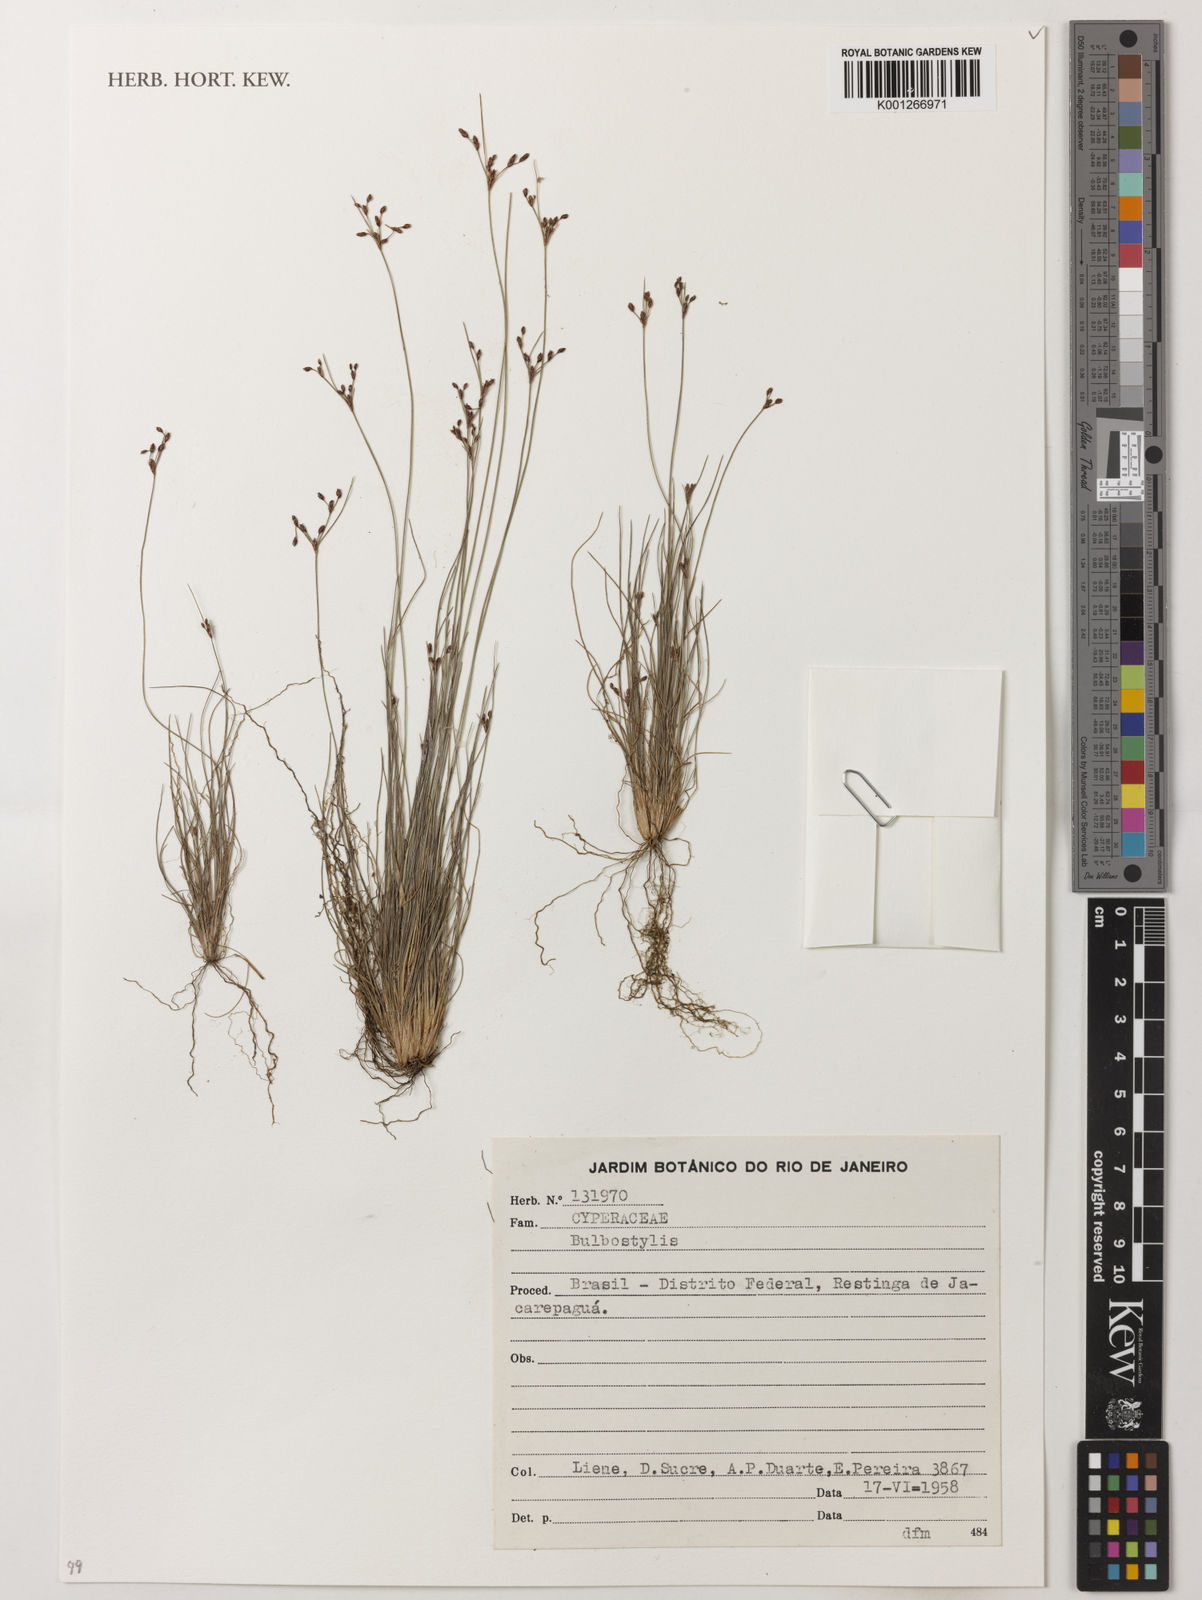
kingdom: Plantae
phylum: Tracheophyta
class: Liliopsida
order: Poales
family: Cyperaceae
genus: Bulbostylis
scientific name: Bulbostylis
